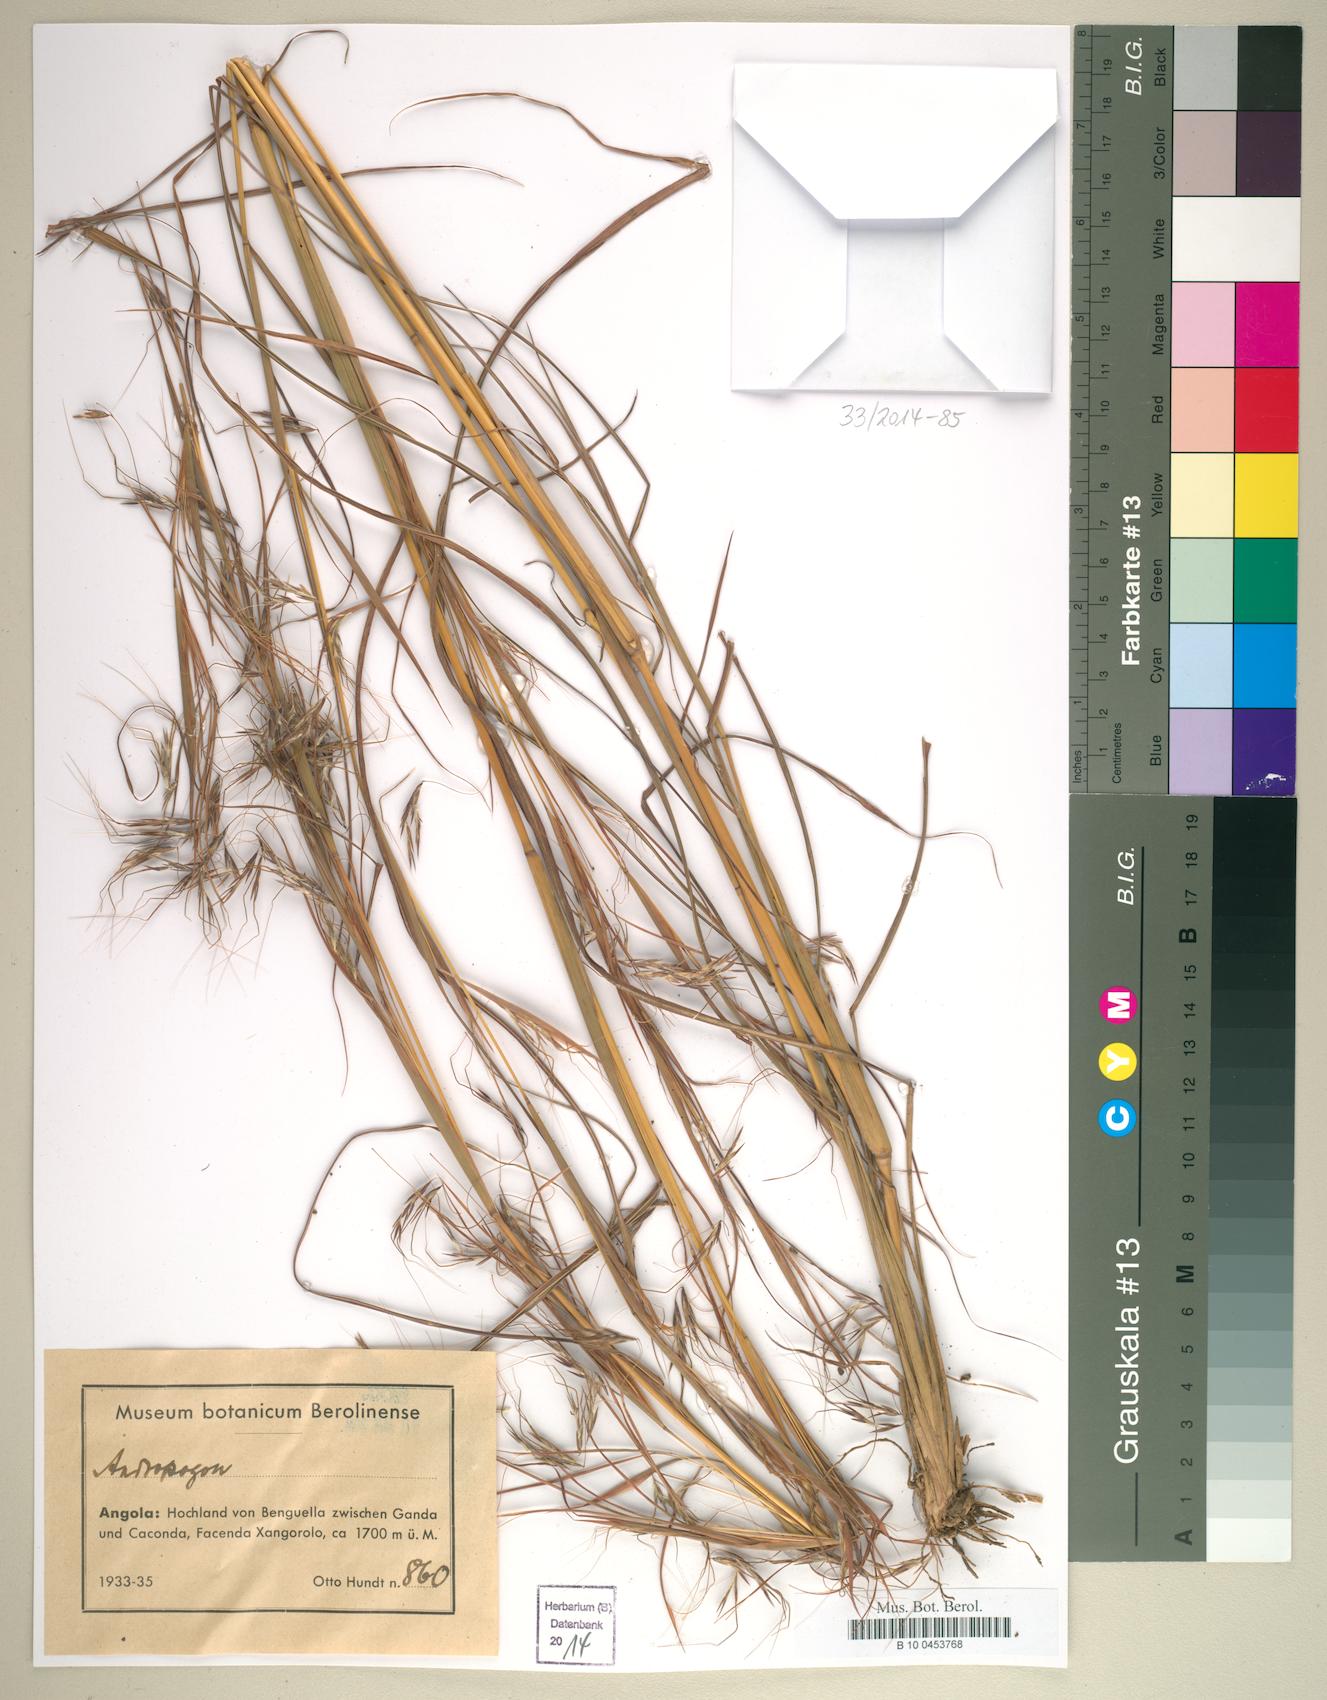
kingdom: Plantae
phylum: Tracheophyta
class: Liliopsida
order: Poales
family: Poaceae
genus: Andropogon
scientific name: Andropogon
